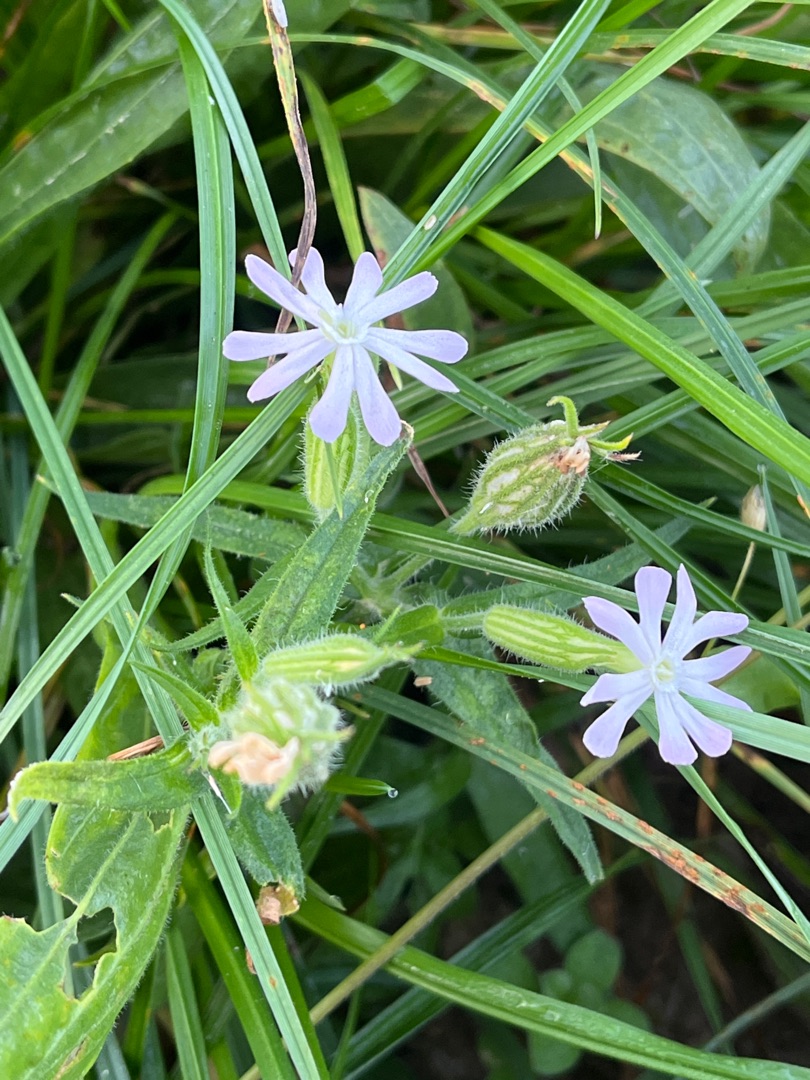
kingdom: Plantae
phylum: Tracheophyta
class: Magnoliopsida
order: Caryophyllales
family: Caryophyllaceae
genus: Silene
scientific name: Silene latifolia
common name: Aftenpragtstjerne
